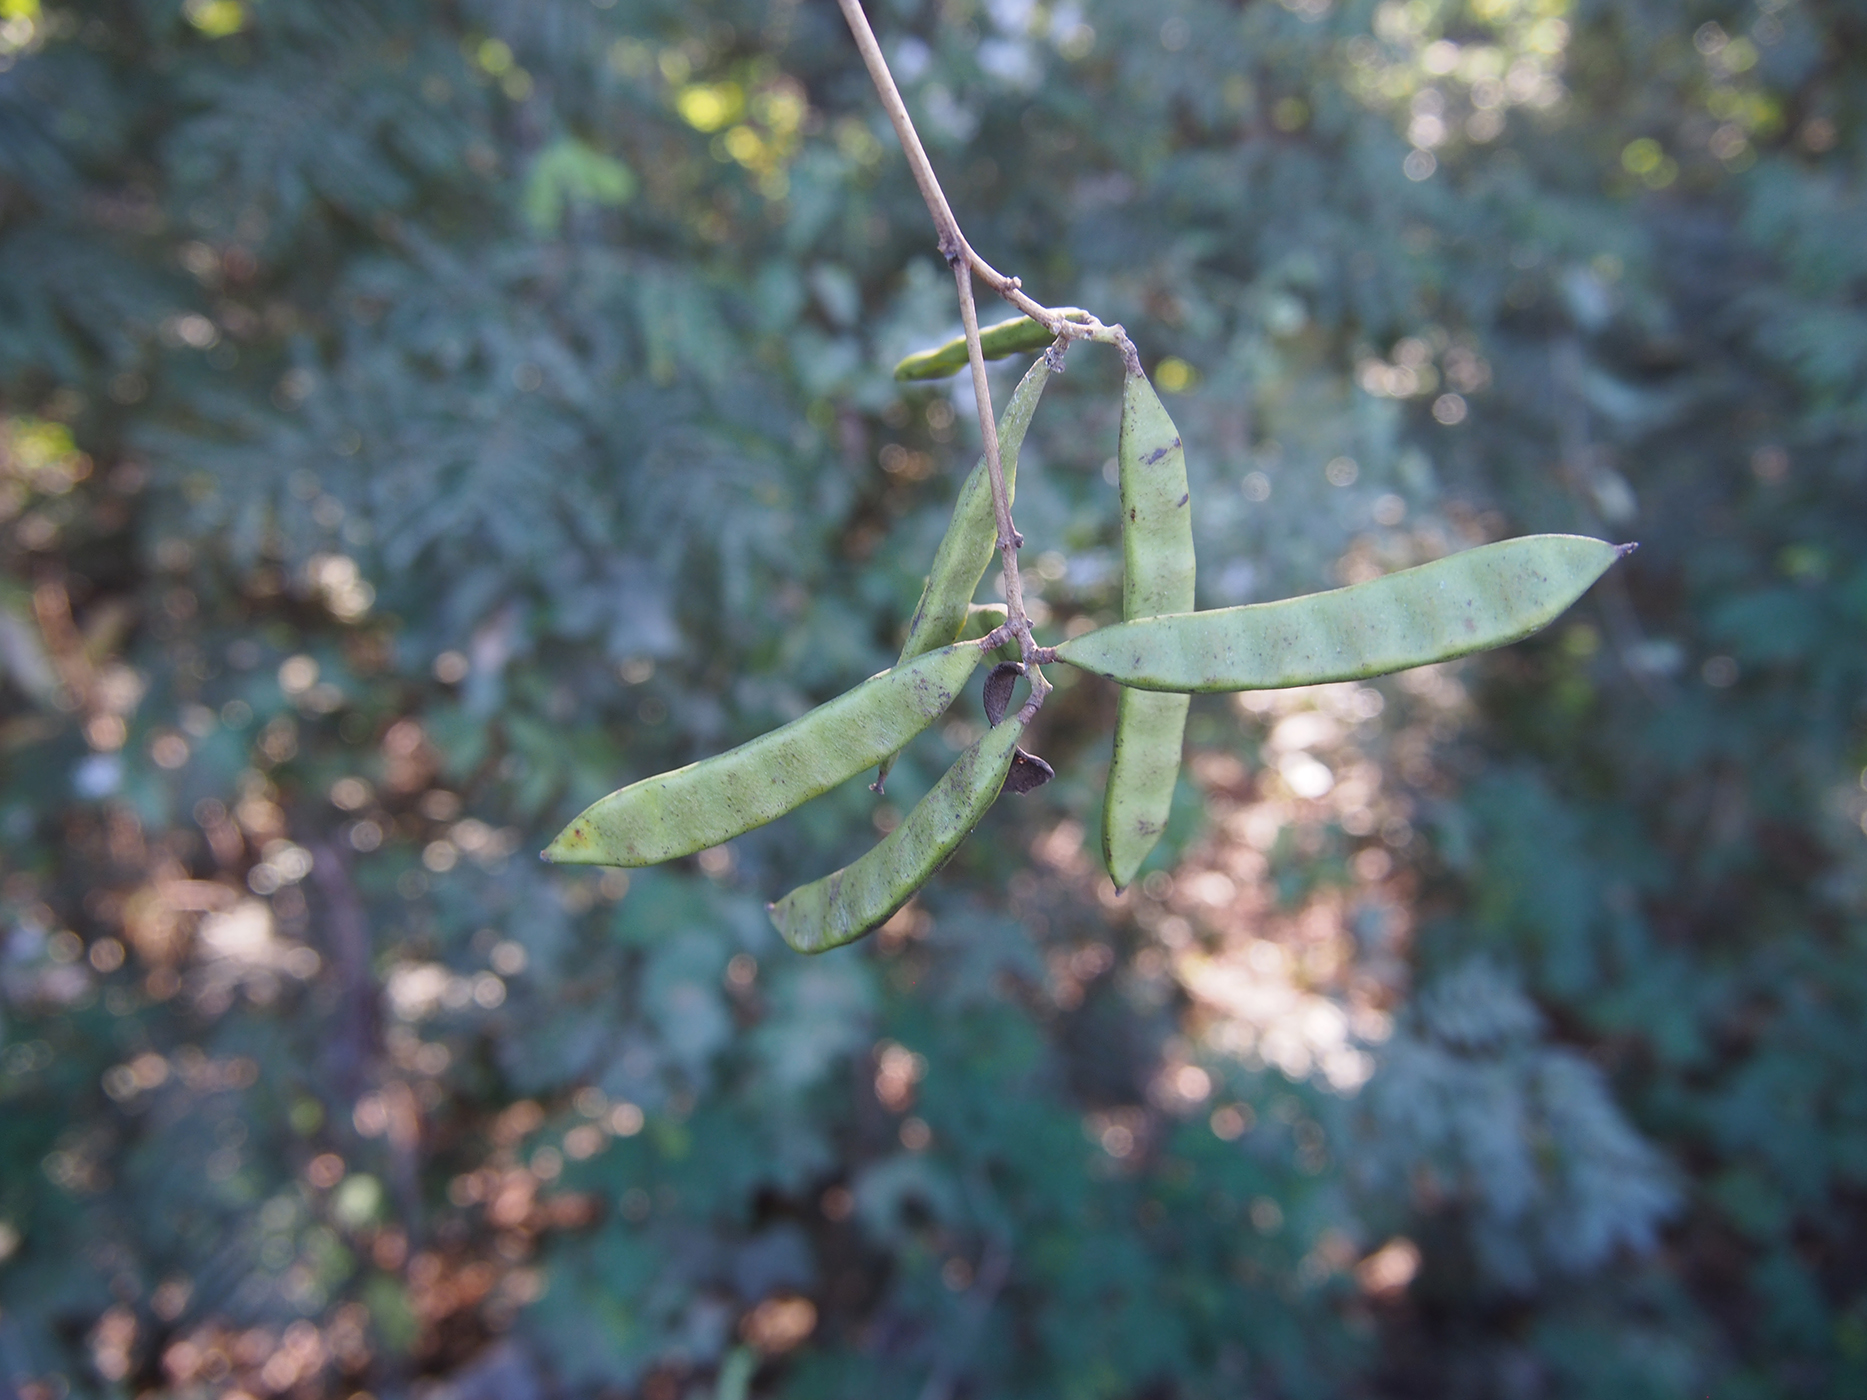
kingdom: Plantae
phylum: Tracheophyta
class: Magnoliopsida
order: Fabales
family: Fabaceae
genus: Bauhinia
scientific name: Bauhinia
